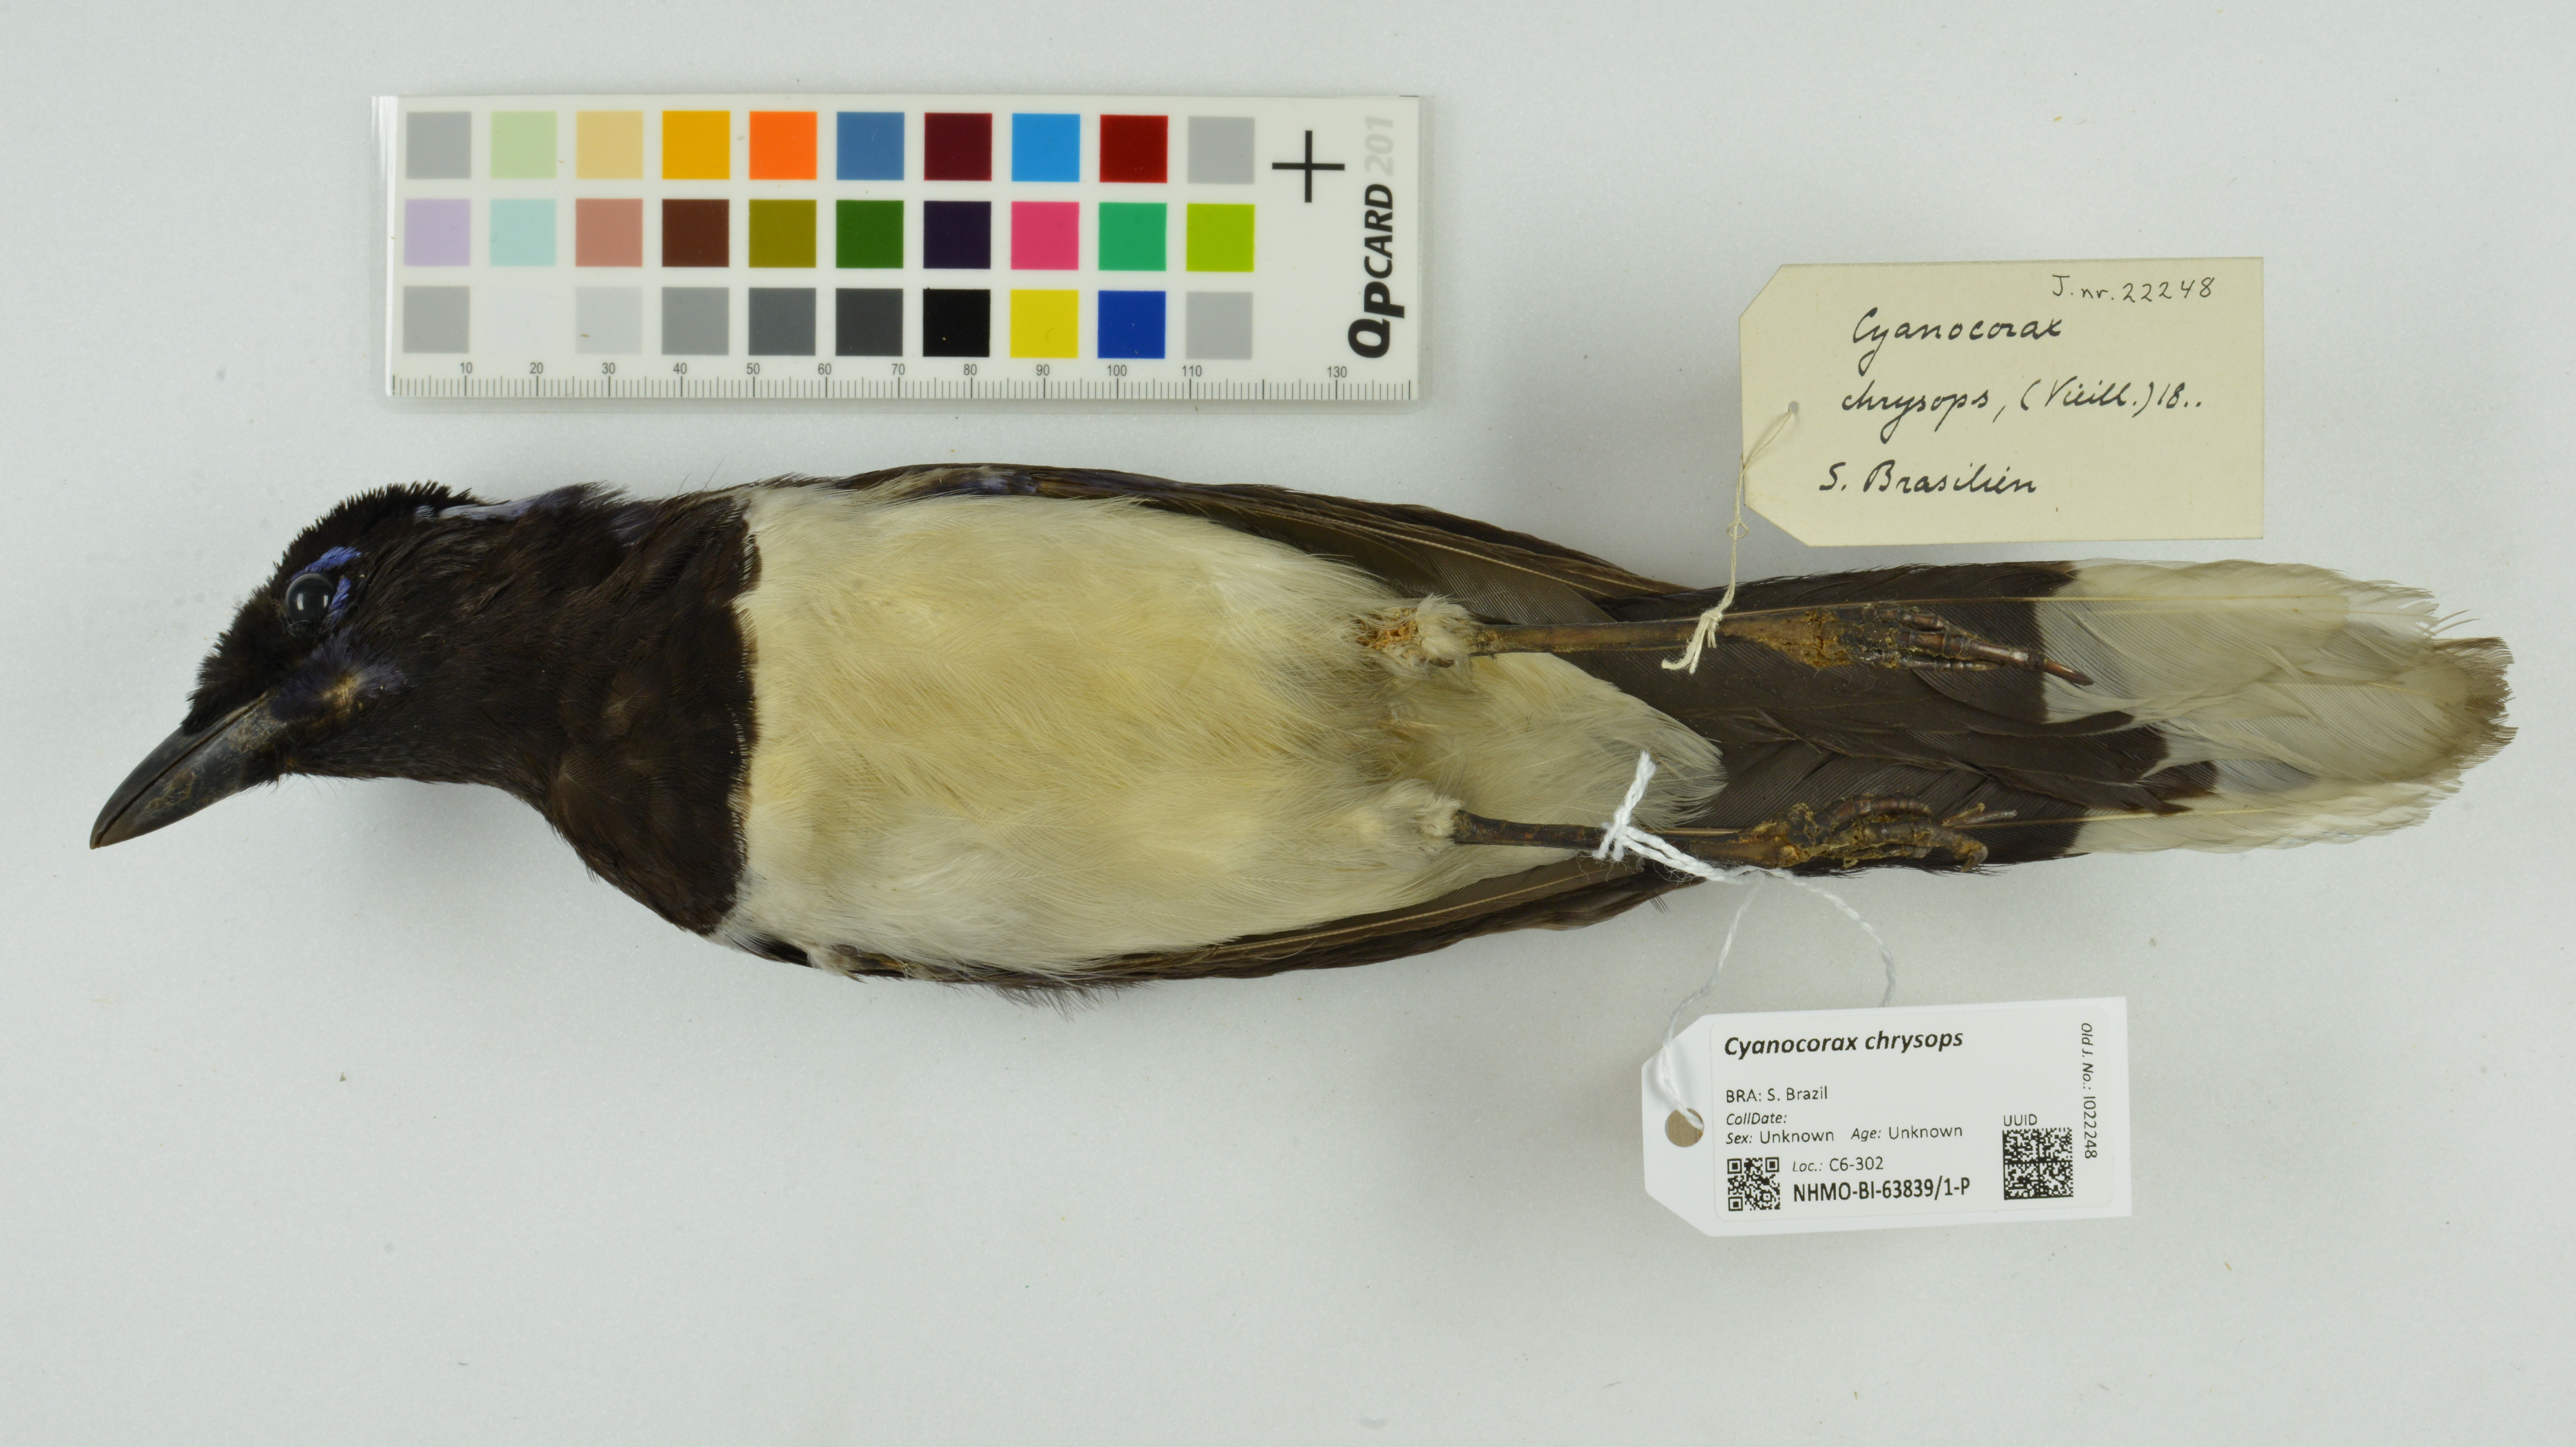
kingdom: Animalia
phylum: Chordata
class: Aves
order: Passeriformes
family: Corvidae
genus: Cyanocorax
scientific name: Cyanocorax chrysops
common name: Plush-crested jay
